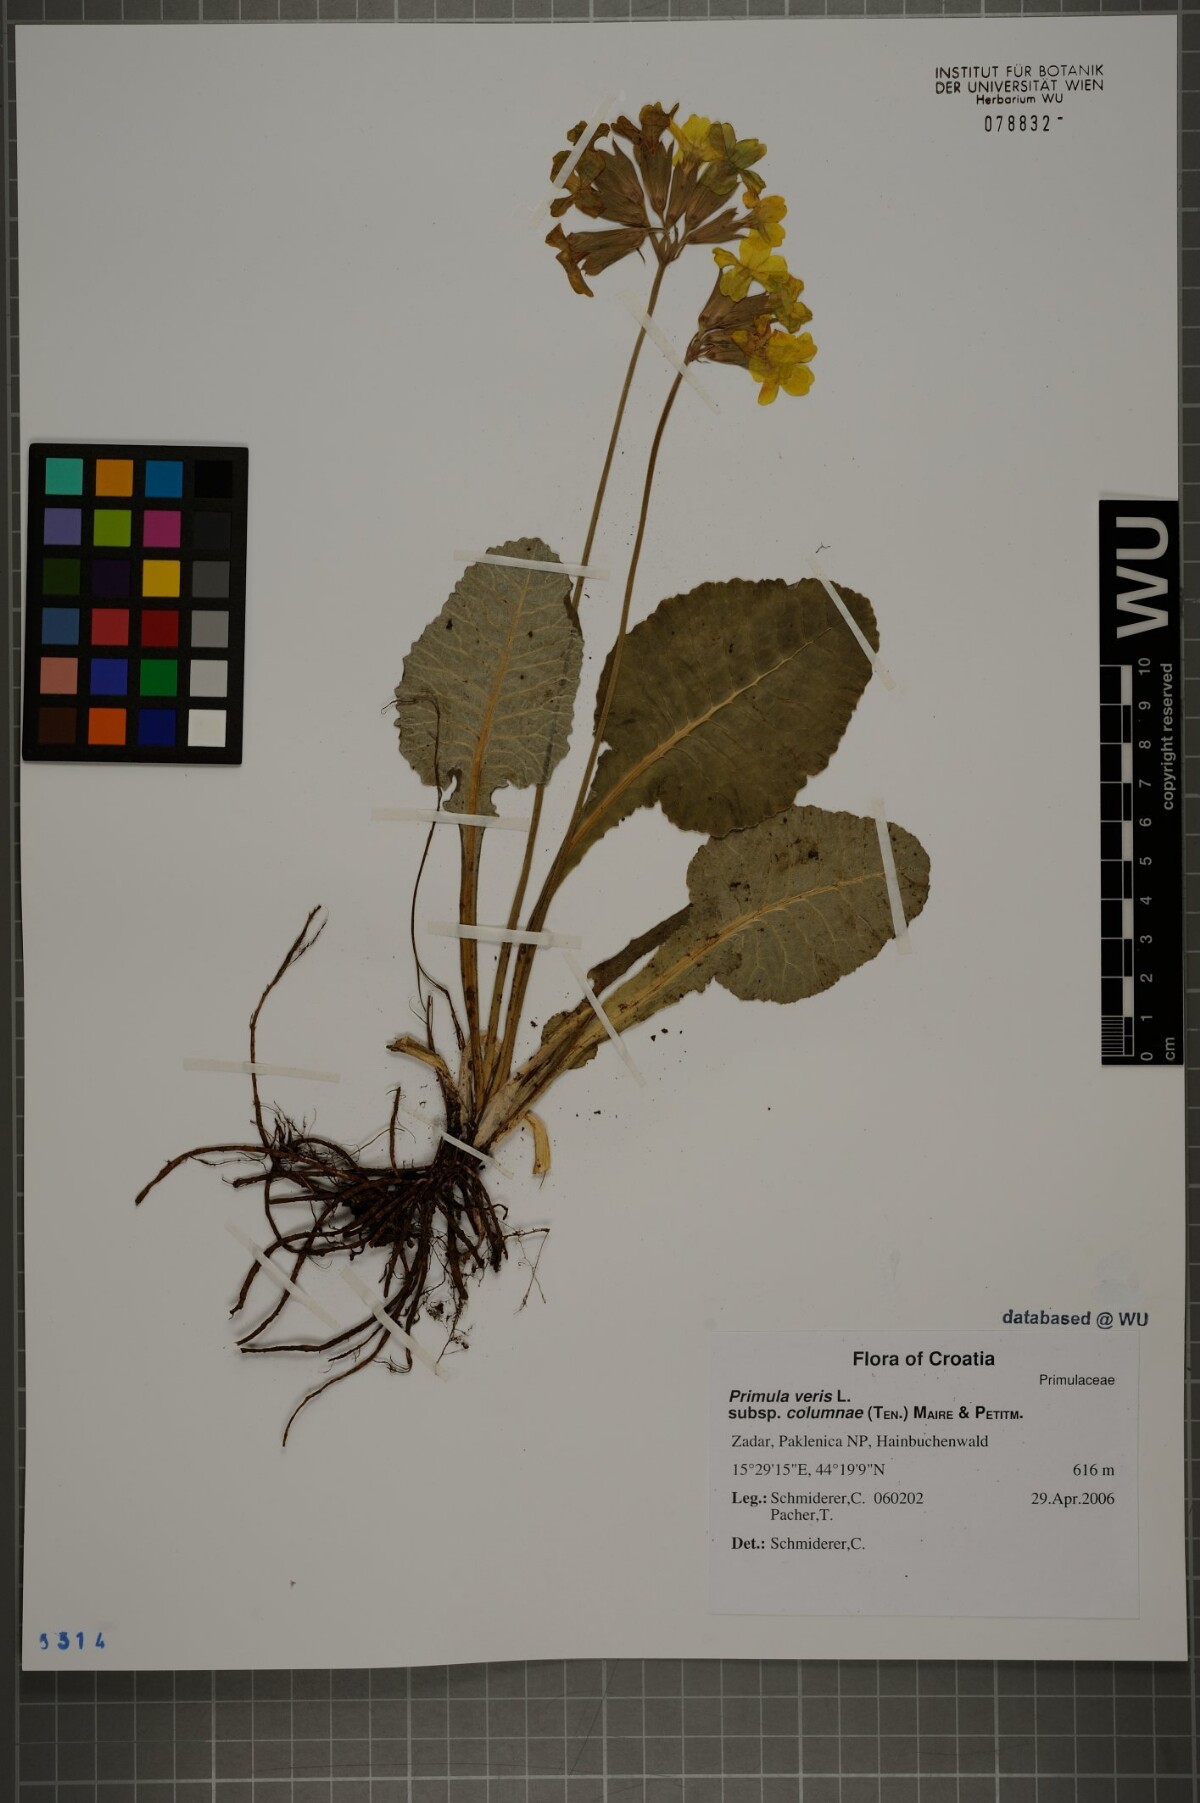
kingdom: Plantae
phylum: Tracheophyta
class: Magnoliopsida
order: Ericales
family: Primulaceae
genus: Primula
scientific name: Primula veris
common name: Cowslip
